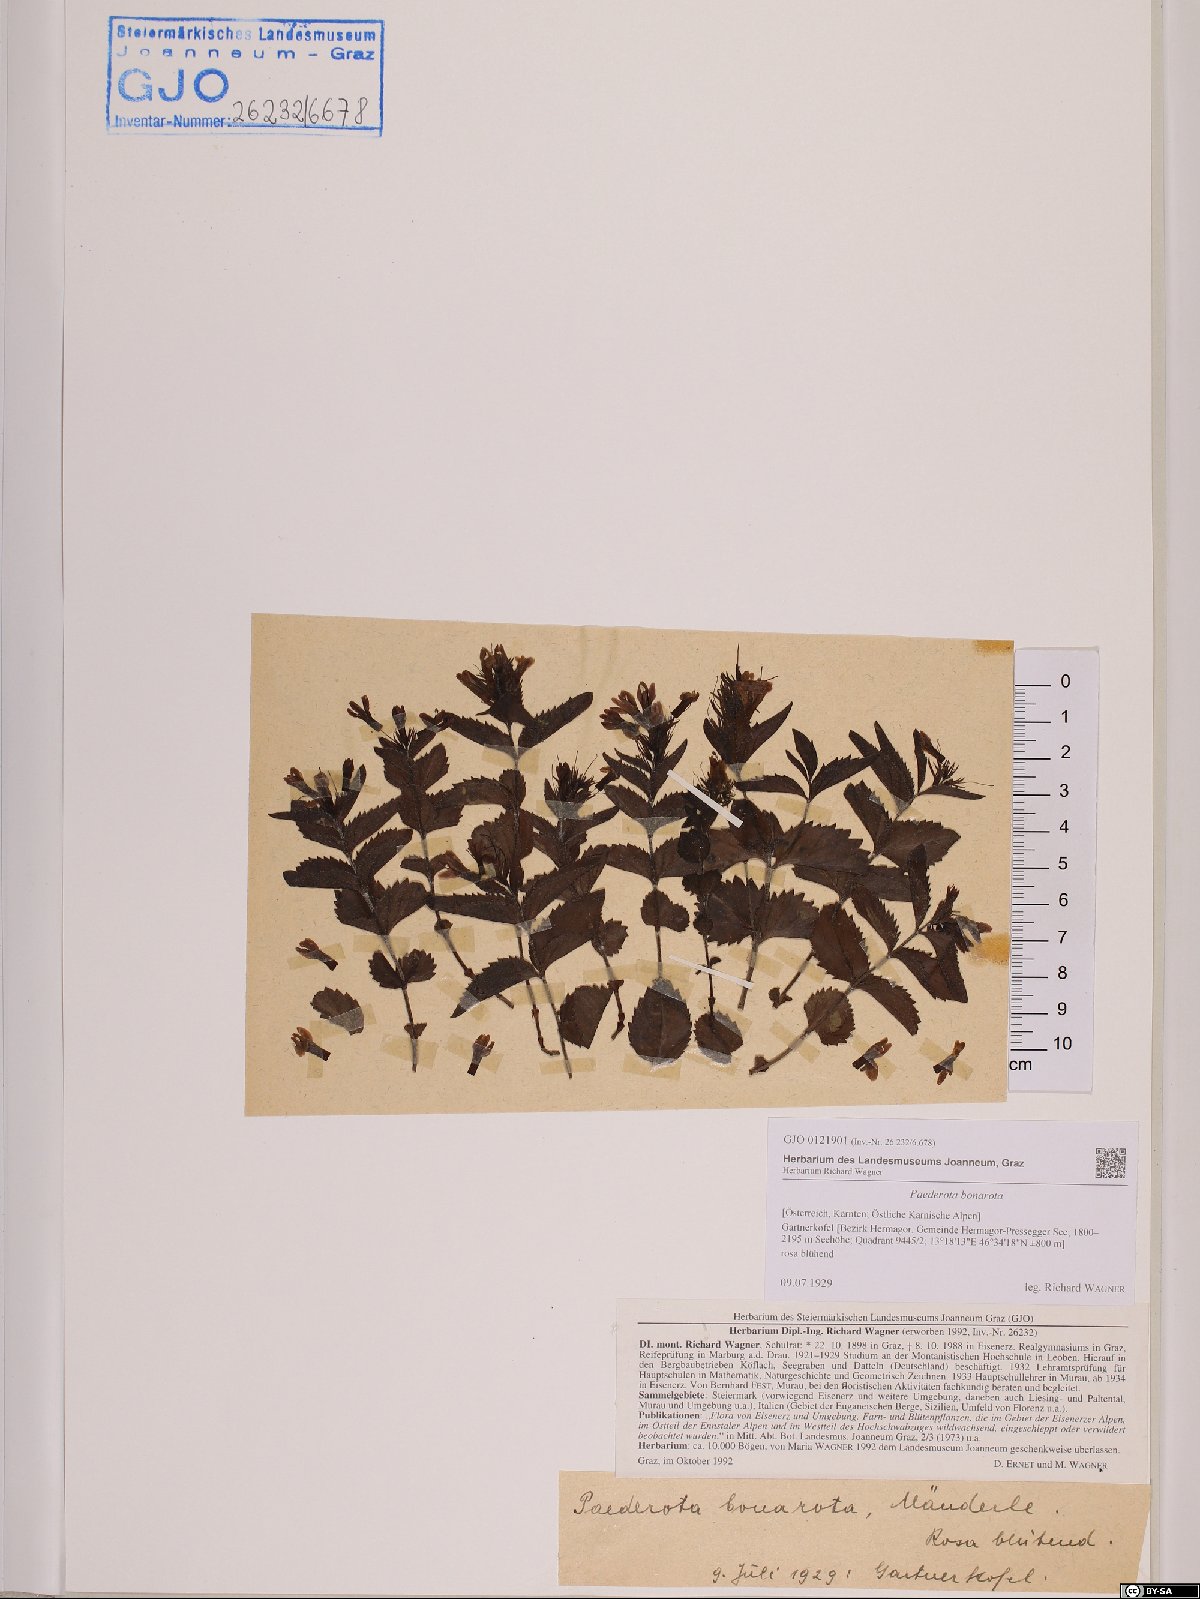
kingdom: Plantae
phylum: Tracheophyta
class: Magnoliopsida
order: Lamiales
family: Plantaginaceae
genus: Paederota
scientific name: Paederota bonarota
